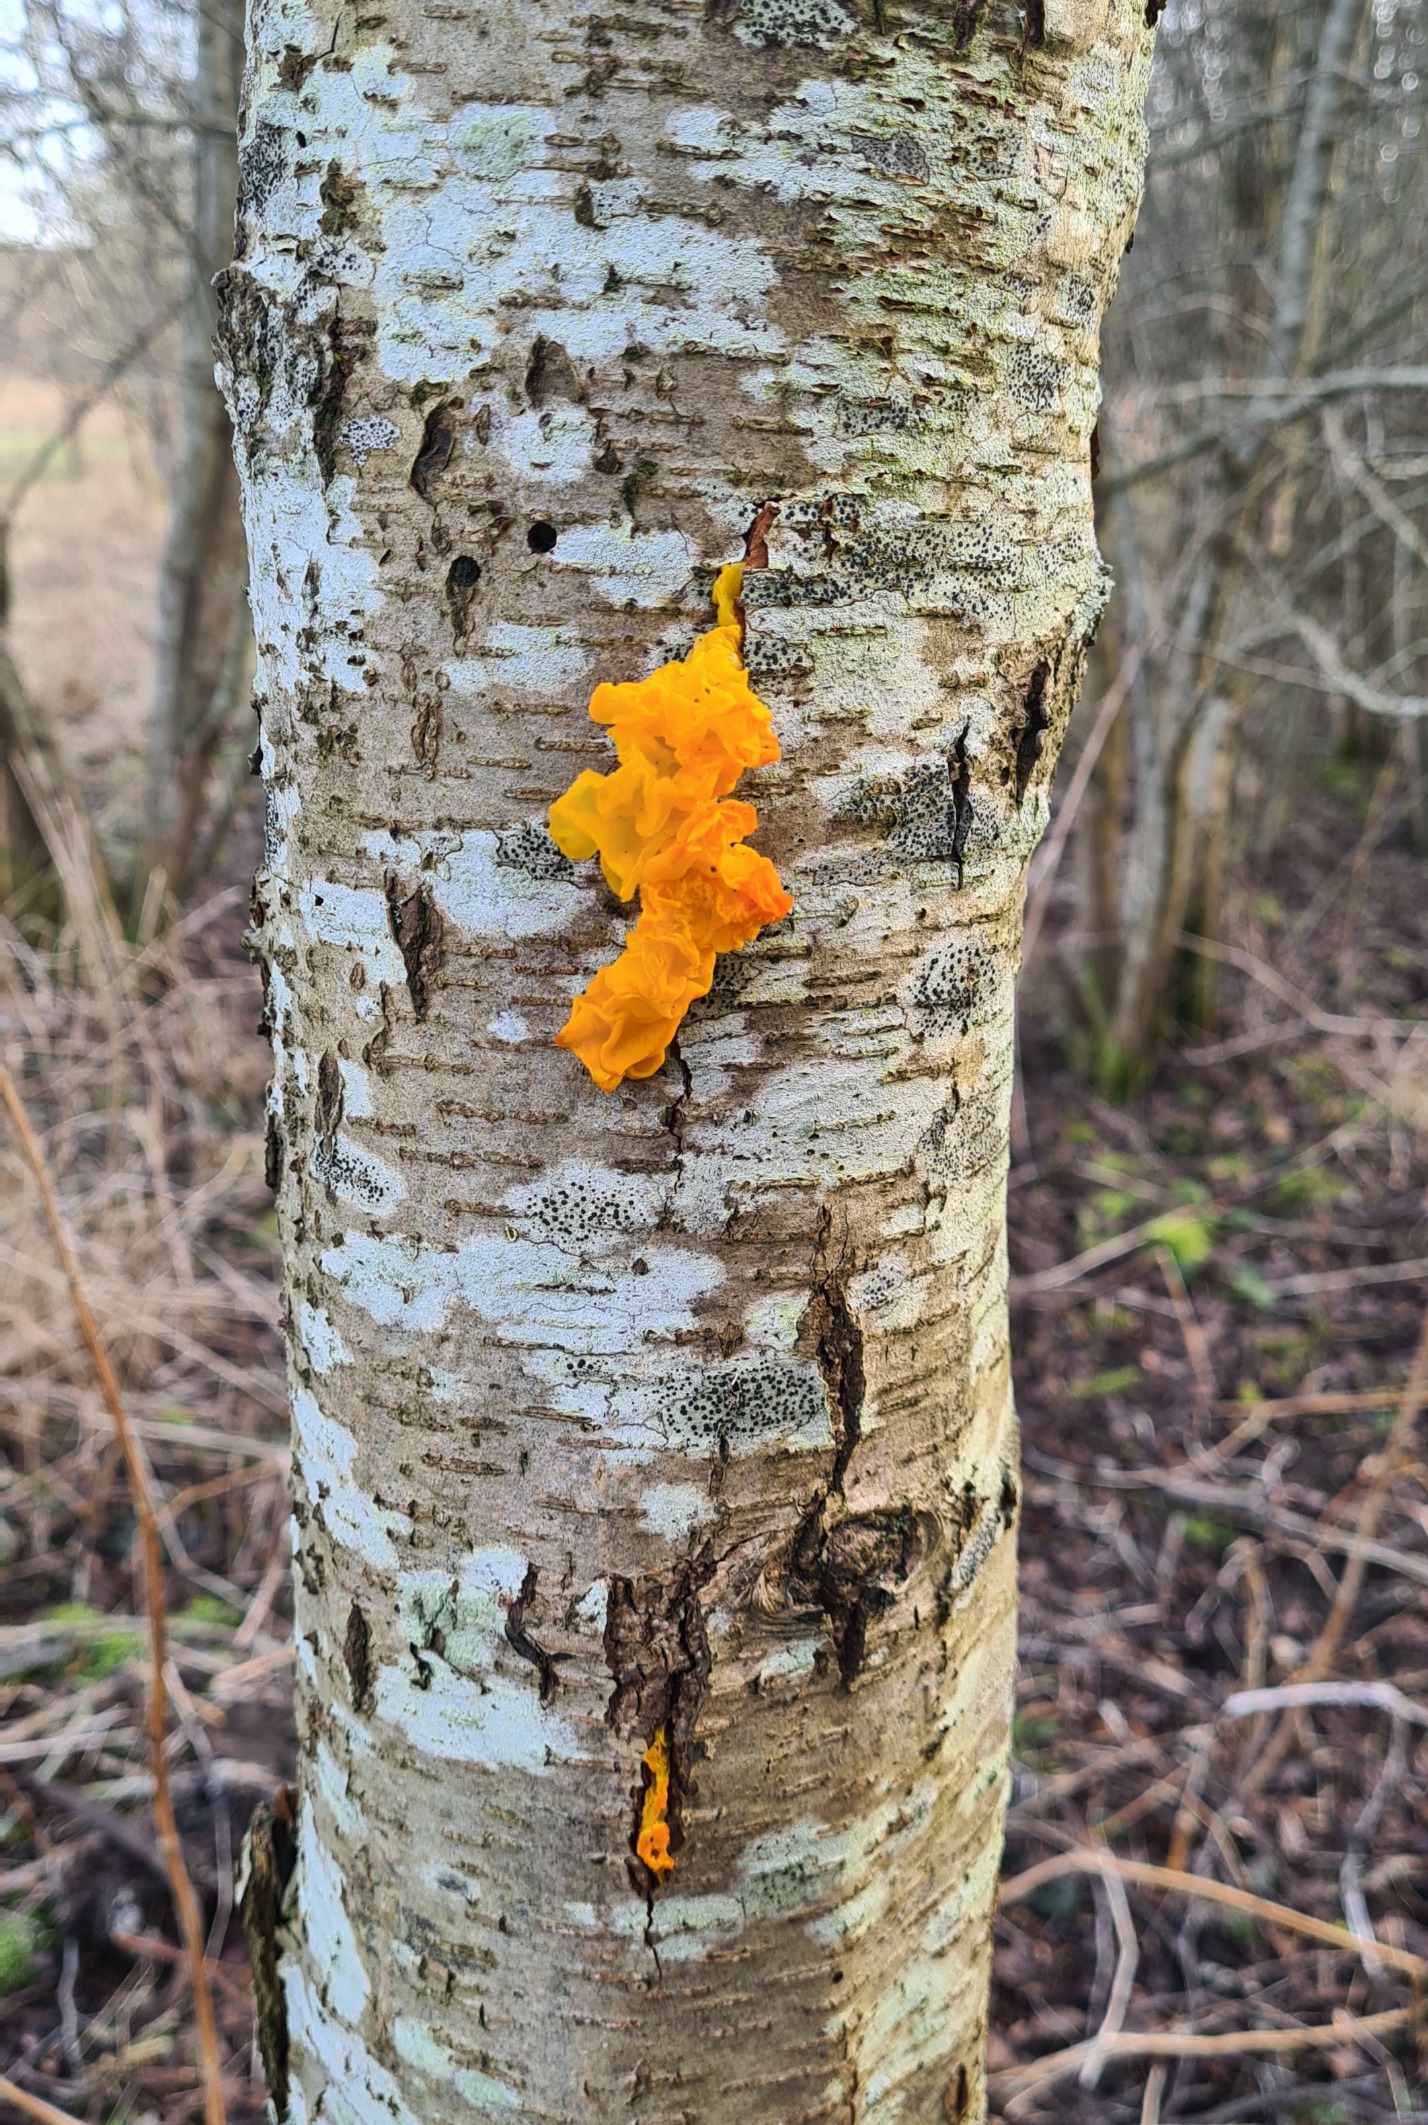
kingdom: Fungi
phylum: Basidiomycota
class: Tremellomycetes
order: Tremellales
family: Tremellaceae
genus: Tremella
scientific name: Tremella mesenterica
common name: Gul bævresvamp
